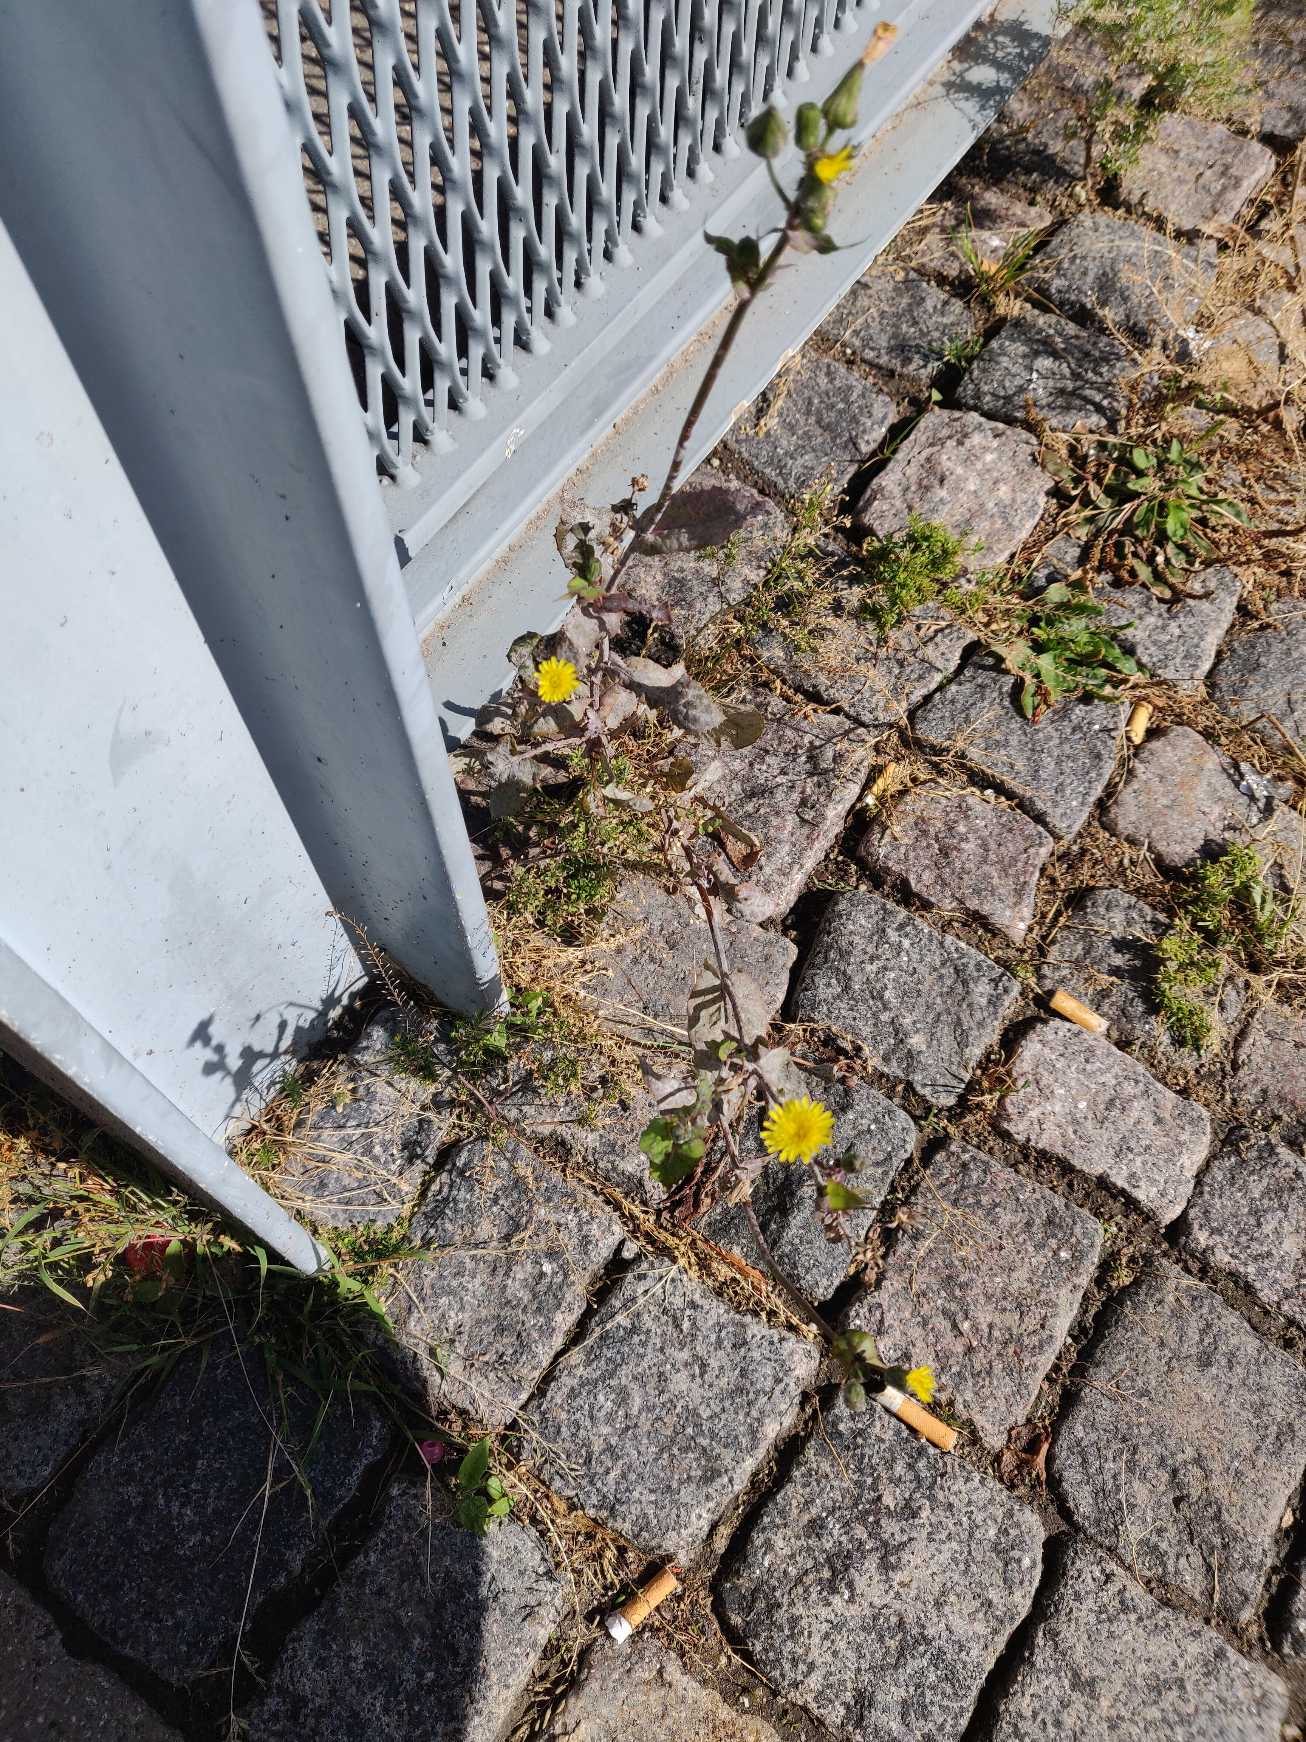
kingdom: Plantae
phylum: Tracheophyta
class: Magnoliopsida
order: Asterales
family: Asteraceae
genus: Sonchus
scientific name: Sonchus oleraceus
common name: Almindelig svinemælk
